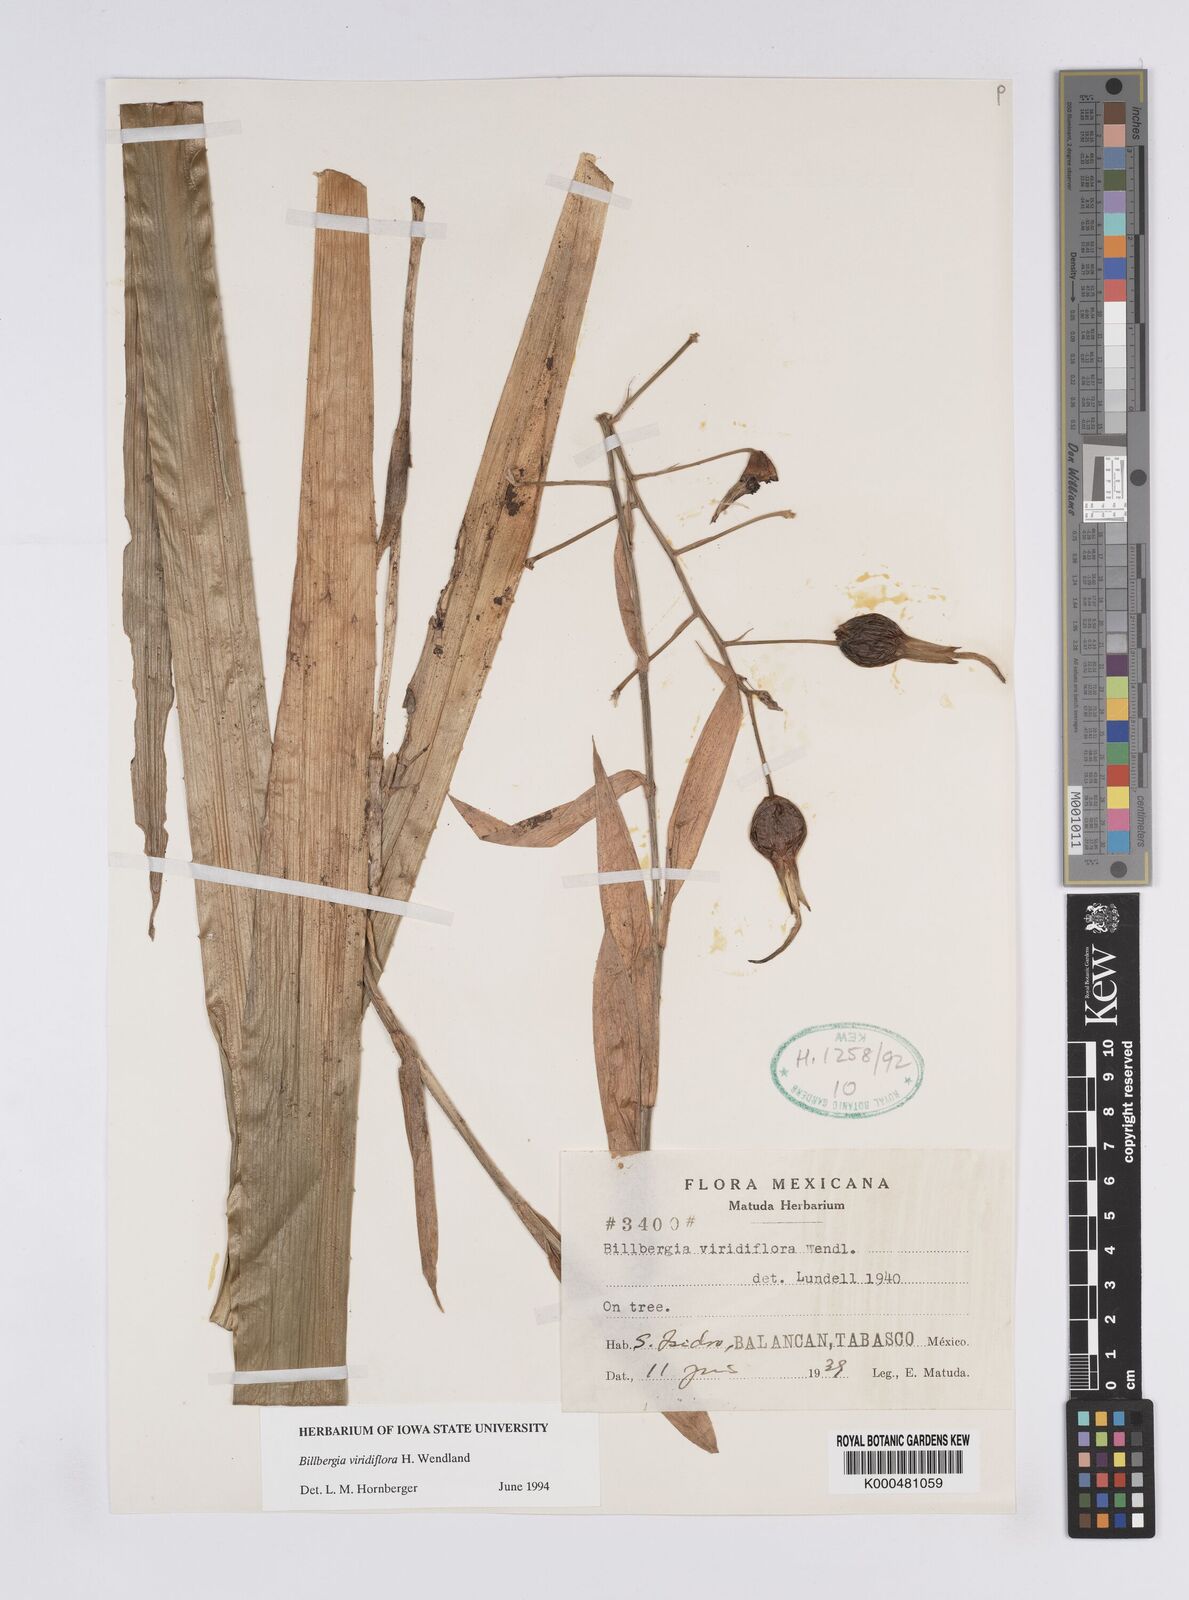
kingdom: Plantae
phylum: Tracheophyta
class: Liliopsida
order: Poales
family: Bromeliaceae
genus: Billbergia
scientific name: Billbergia viridiflora
